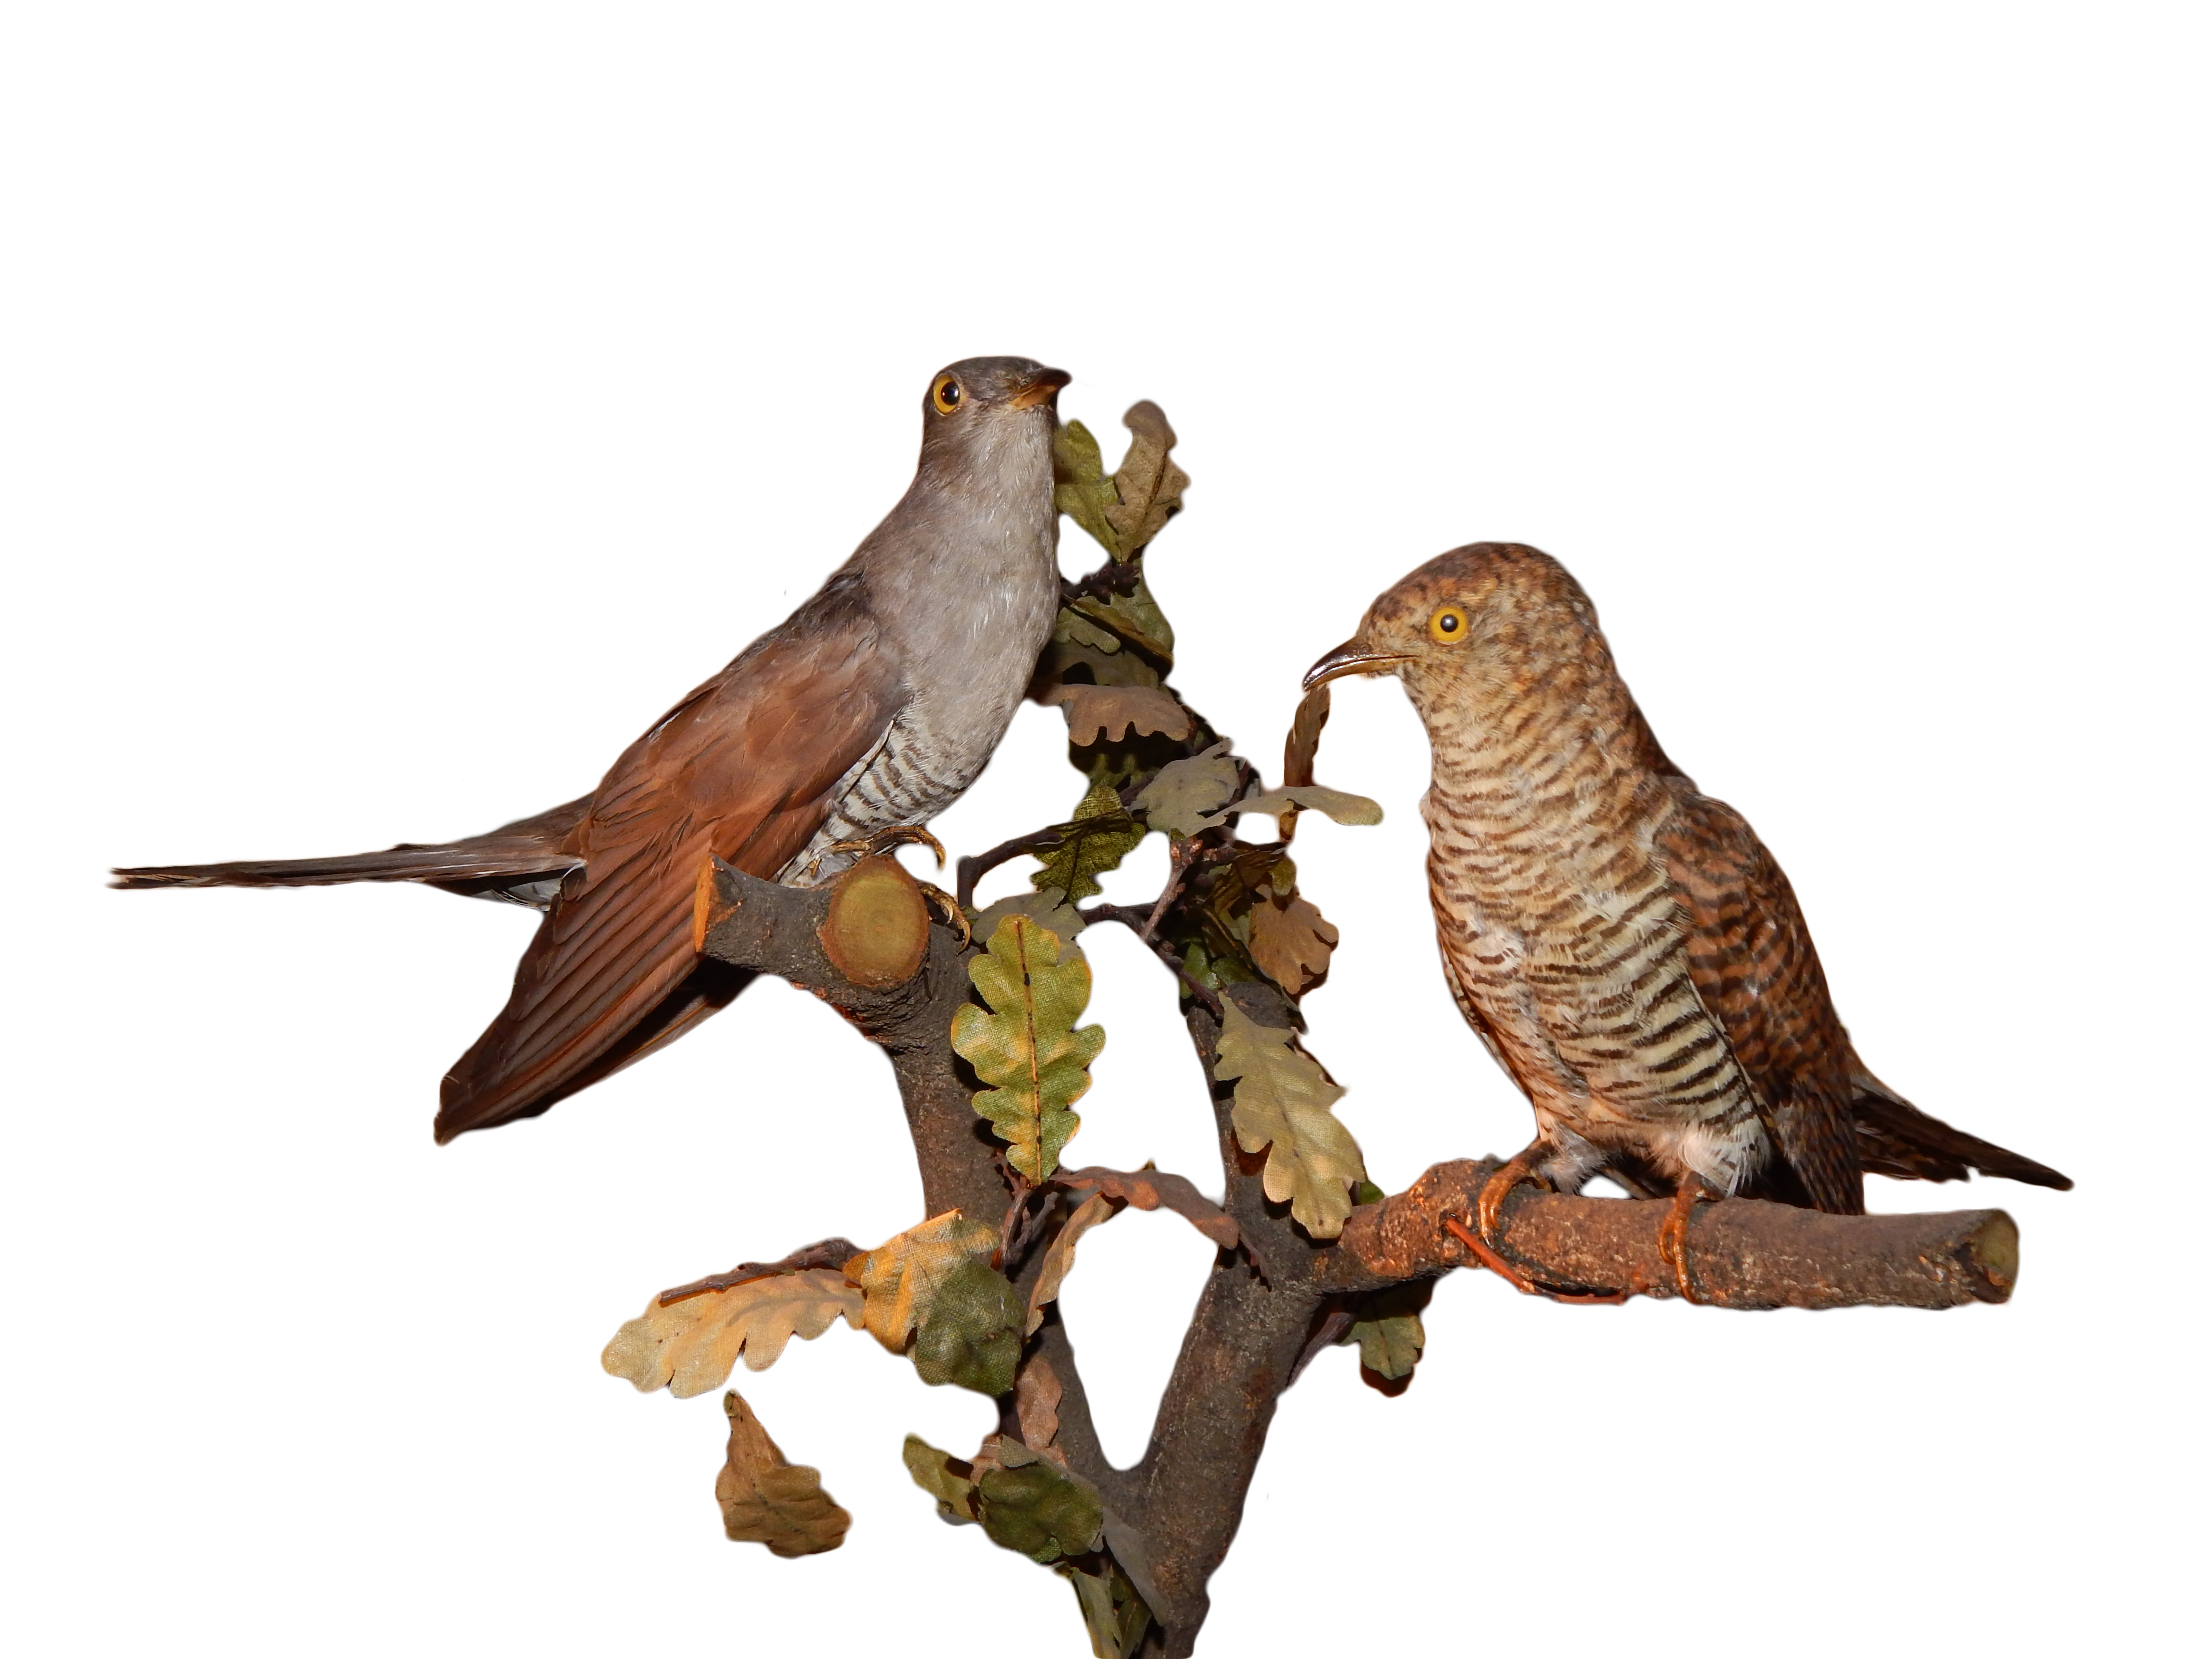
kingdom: Animalia
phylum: Chordata
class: Aves
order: Cuculiformes
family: Cuculidae
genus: Cuculus
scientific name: Cuculus canorus
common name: Common cuckoo
